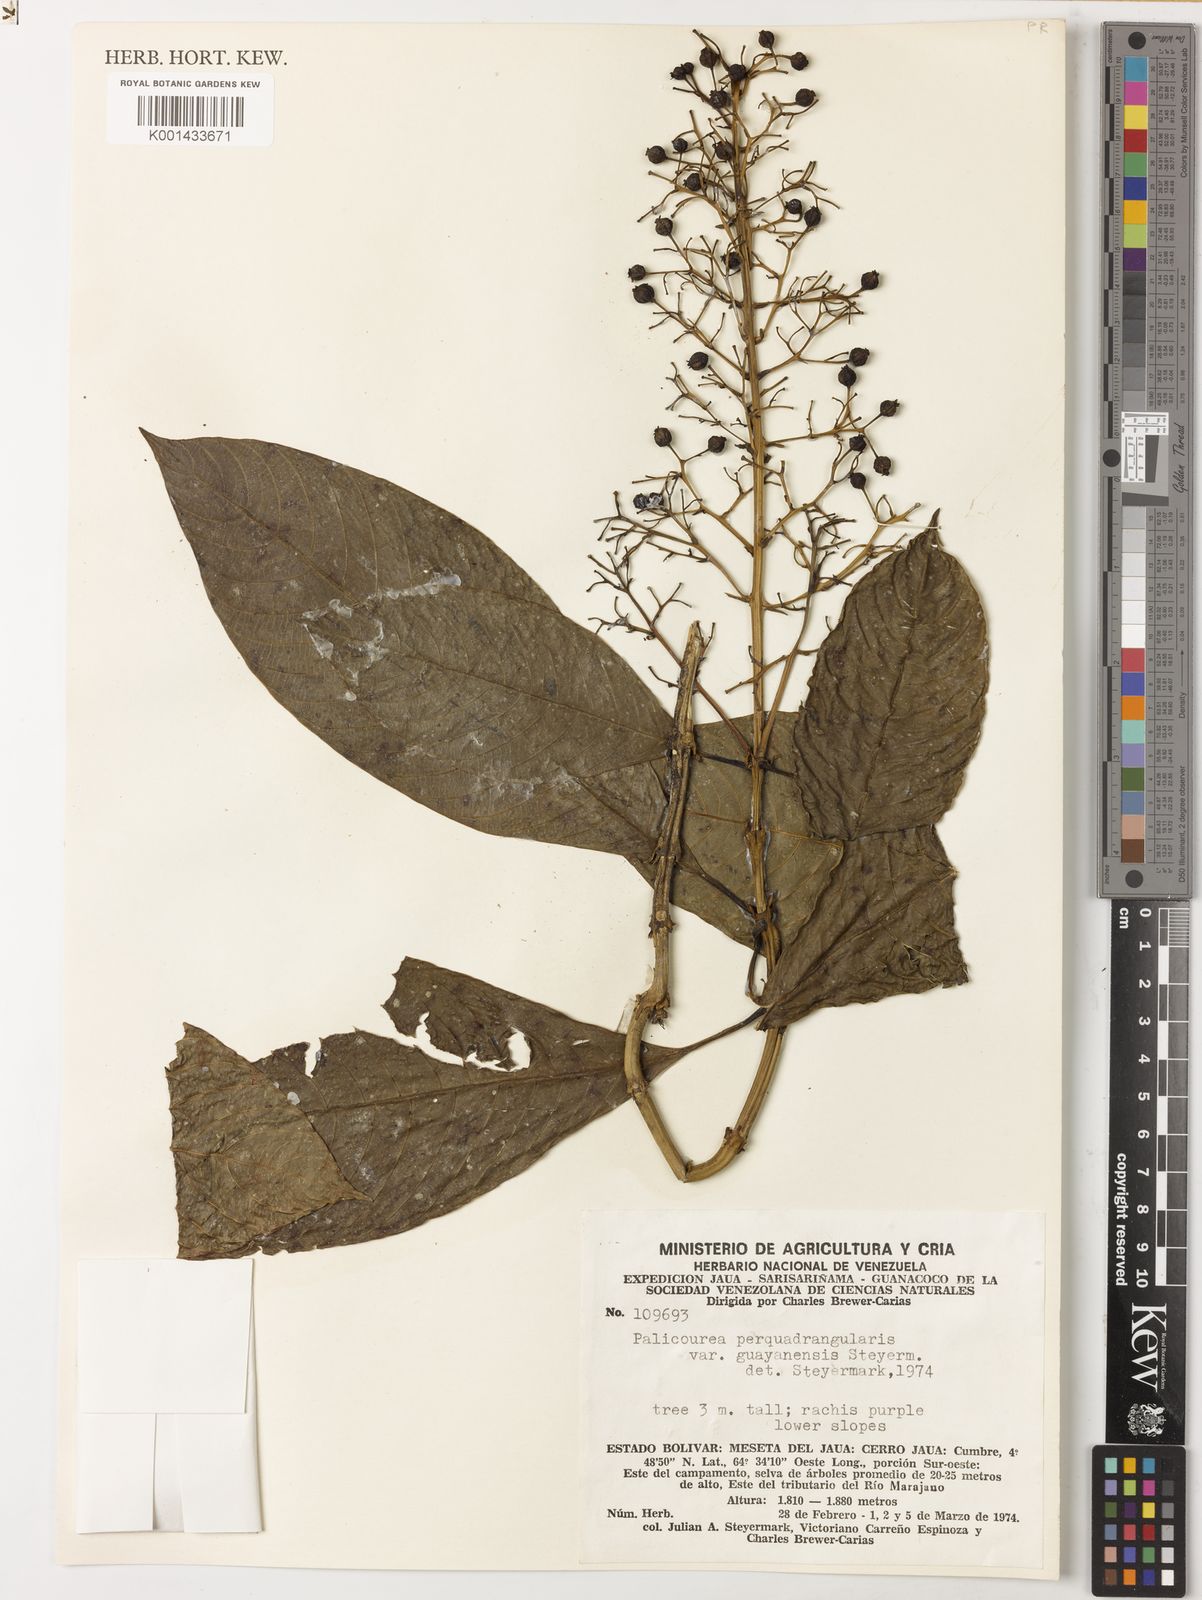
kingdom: Plantae
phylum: Tracheophyta
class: Magnoliopsida
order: Gentianales
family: Rubiaceae
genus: Palicourea
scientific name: Palicourea perquadrangularis
